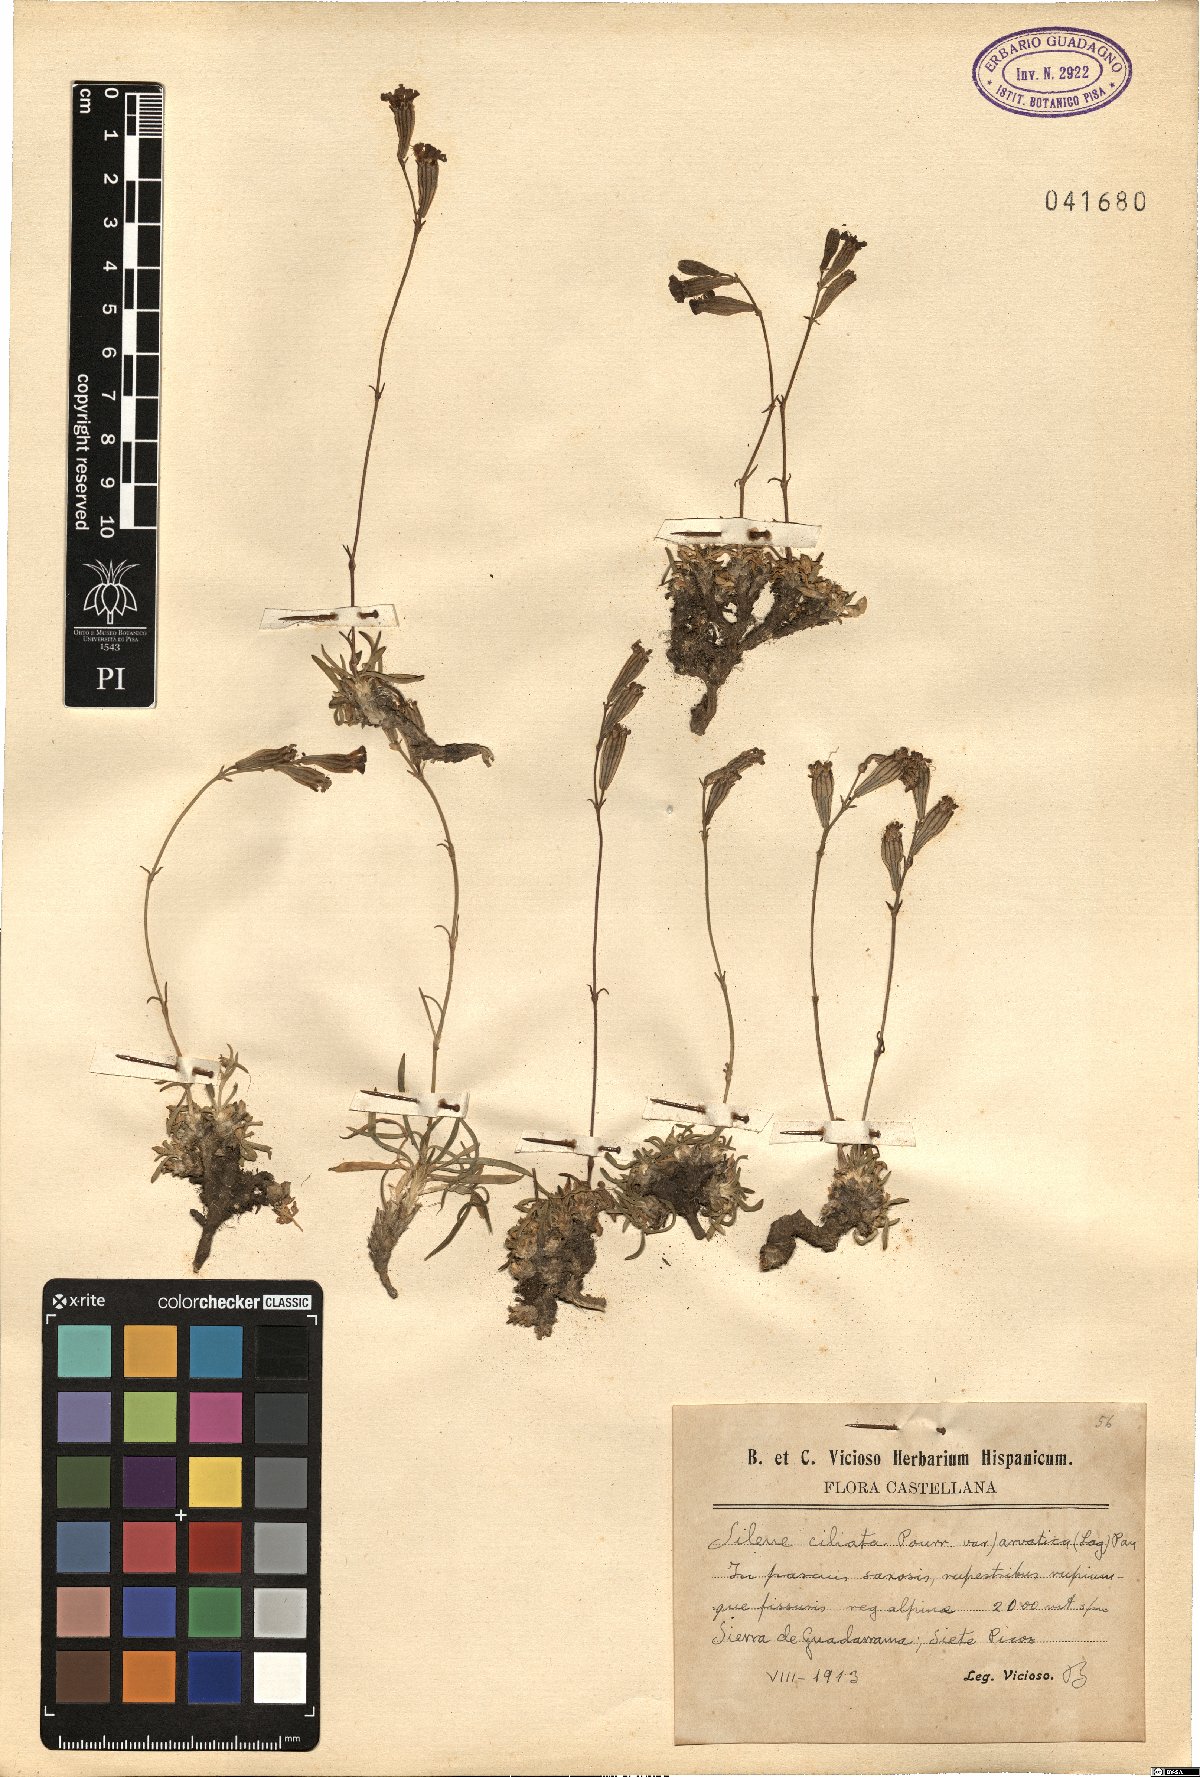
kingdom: Plantae
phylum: Tracheophyta
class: Magnoliopsida
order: Caryophyllales
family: Caryophyllaceae
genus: Silene
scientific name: Silene ciliata
